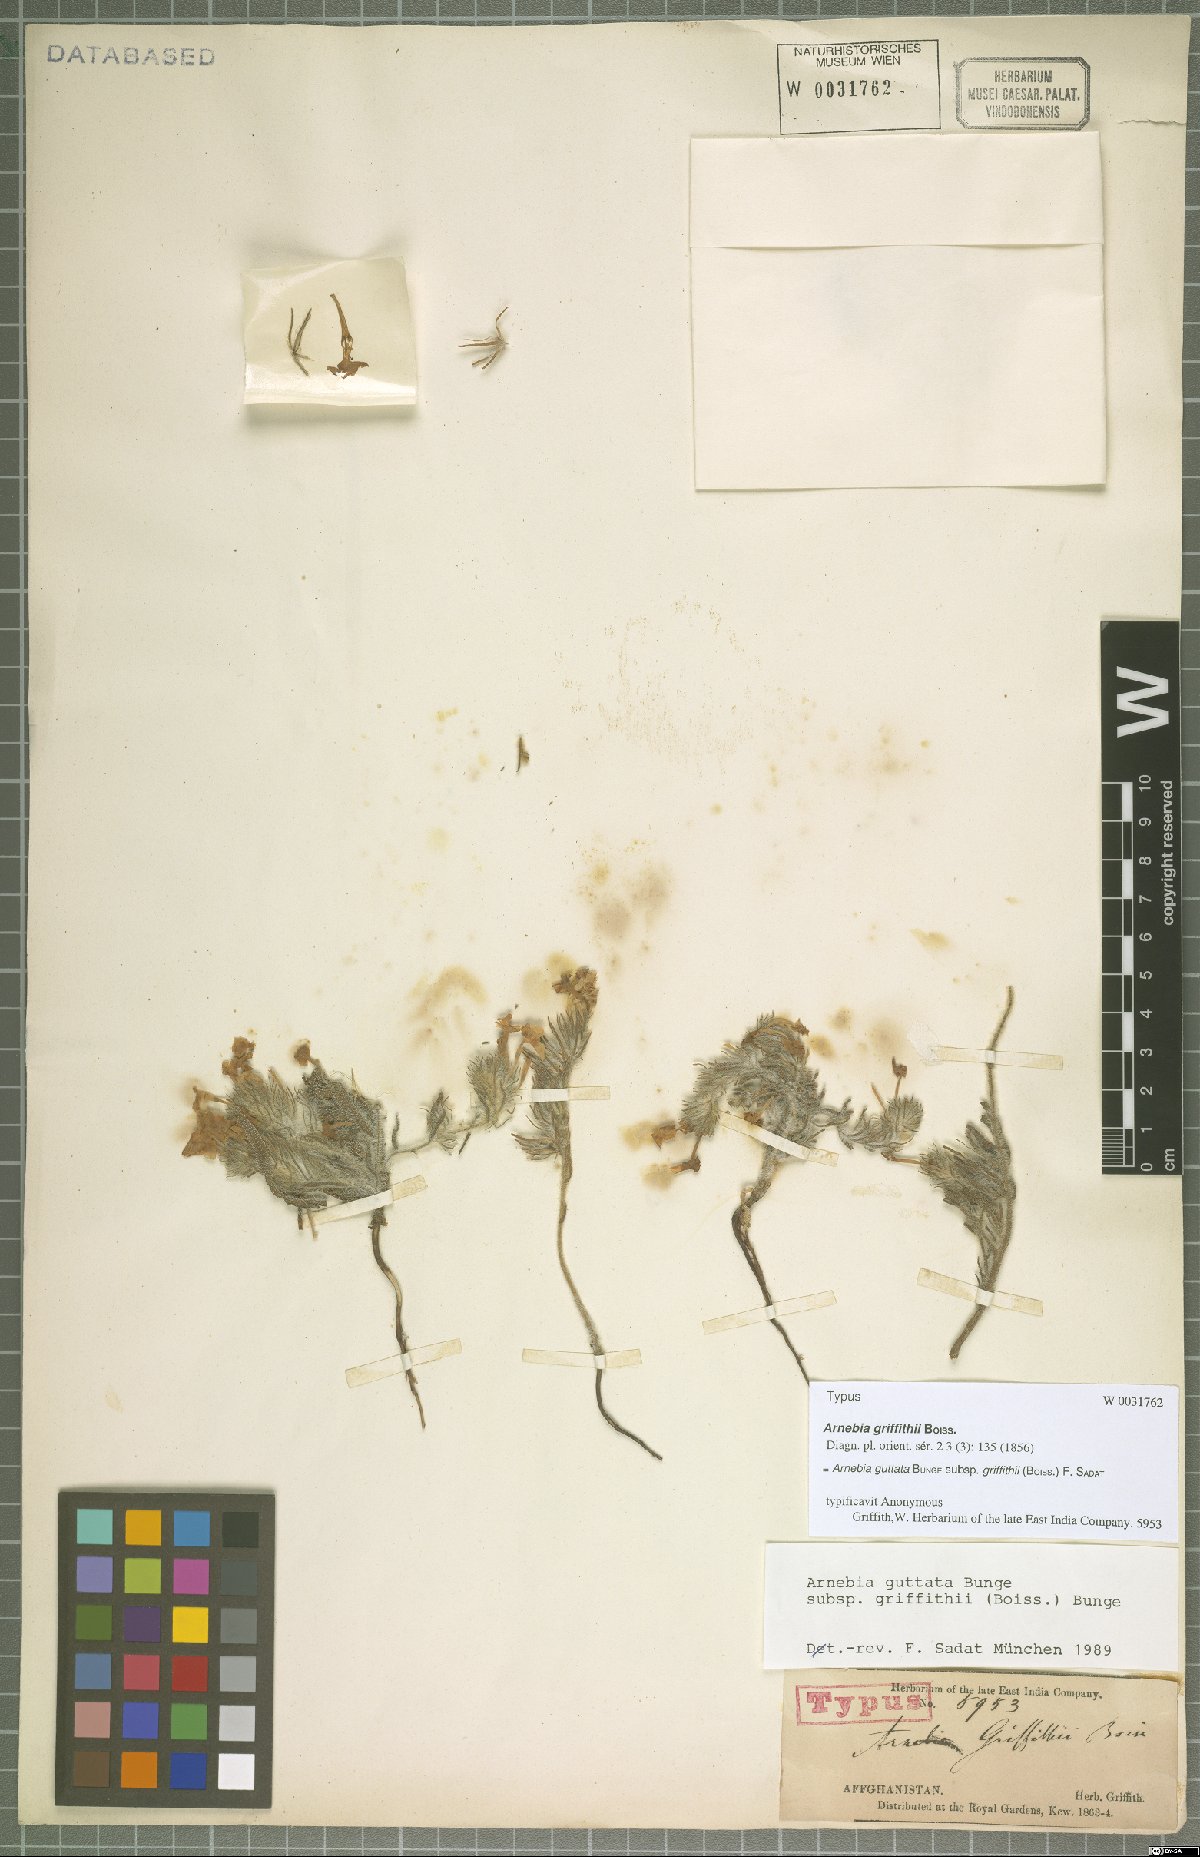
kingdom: Plantae
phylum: Tracheophyta
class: Magnoliopsida
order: Boraginales
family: Boraginaceae
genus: Arnebia
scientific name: Arnebia guttata
